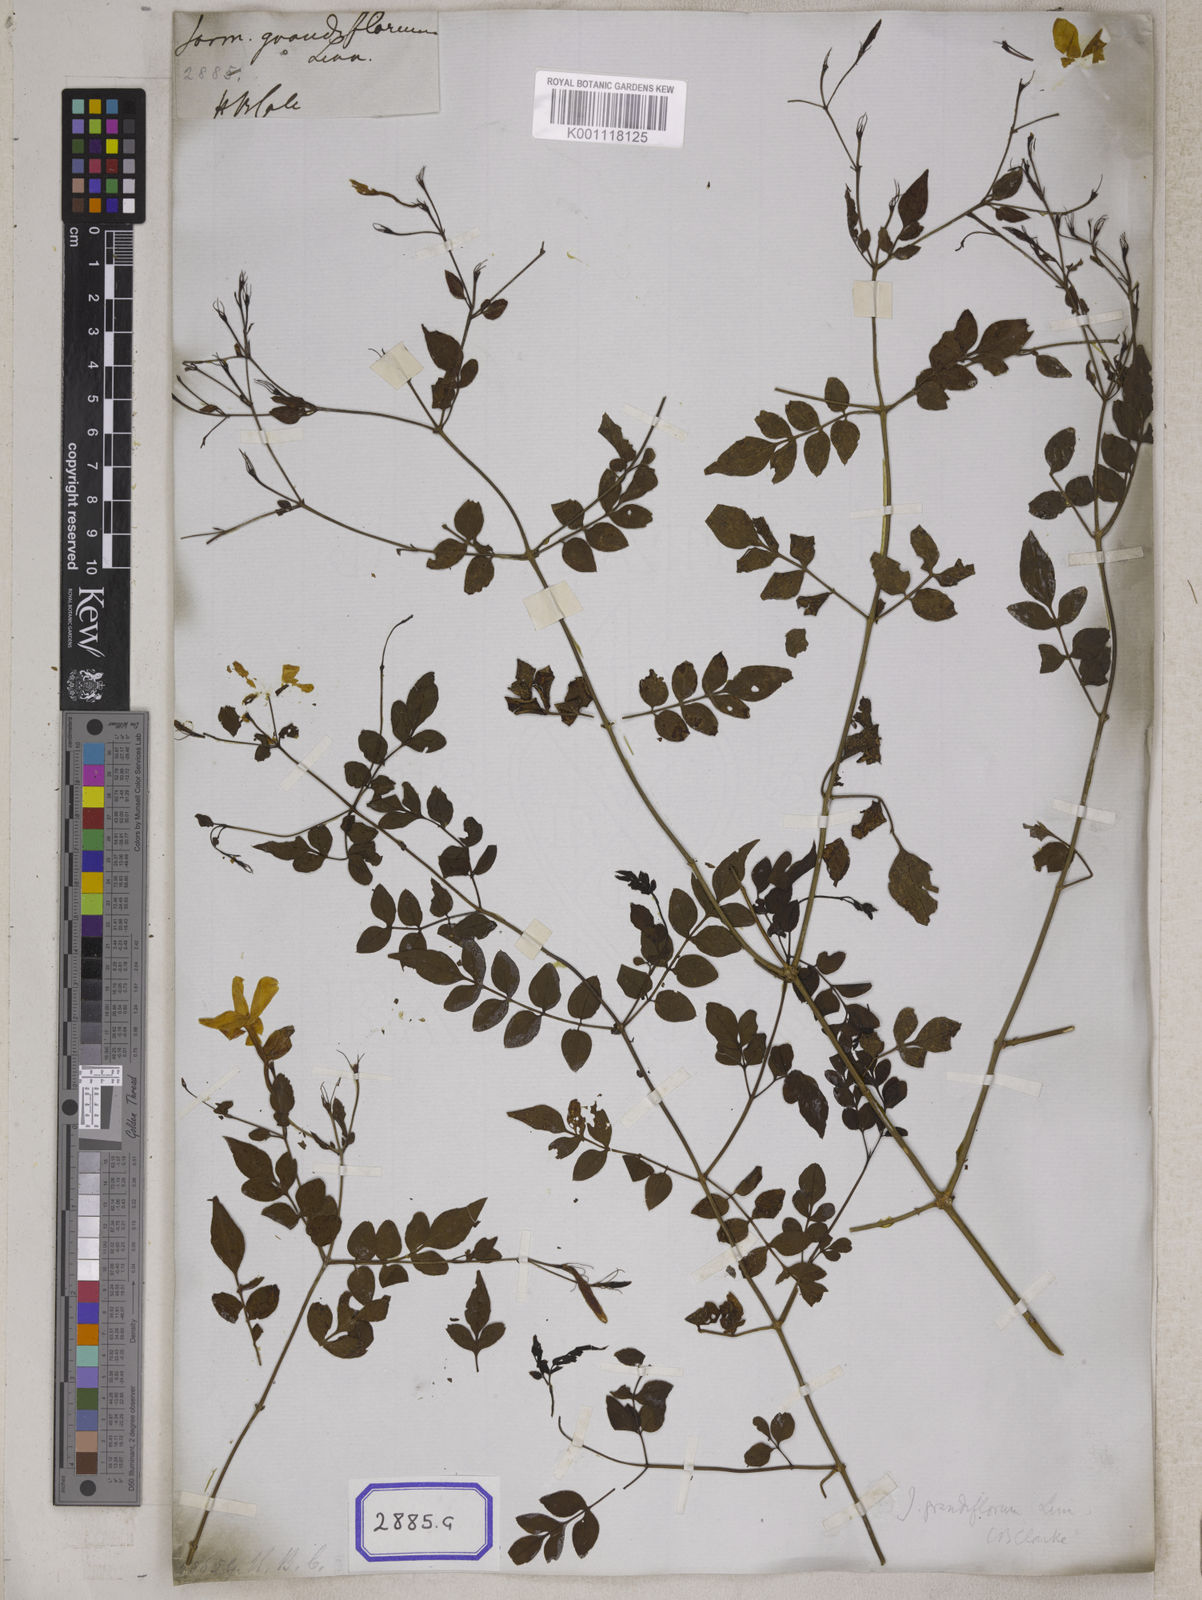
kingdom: Plantae
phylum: Tracheophyta
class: Magnoliopsida
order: Lamiales
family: Oleaceae
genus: Jasminum
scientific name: Jasminum grandiflorum
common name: Catalonian jasmine
